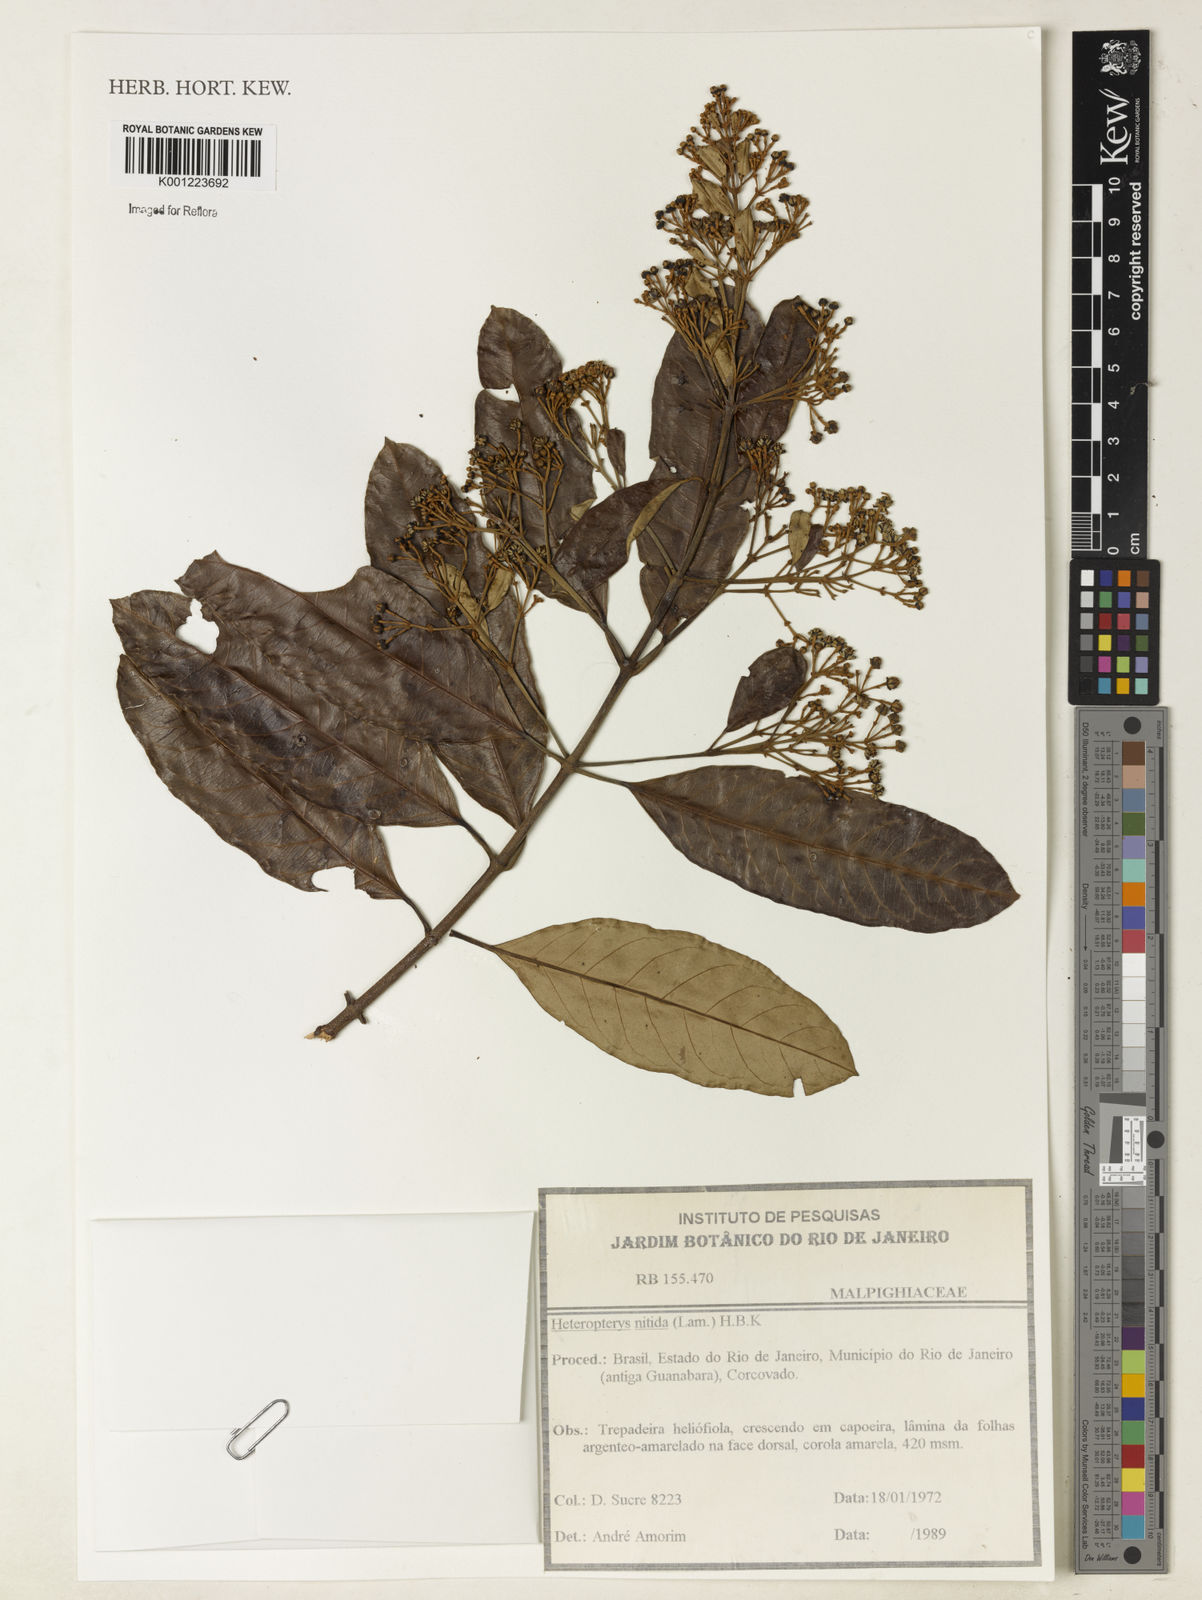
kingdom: Plantae
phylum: Tracheophyta
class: Magnoliopsida
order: Malpighiales
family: Malpighiaceae
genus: Heteropterys
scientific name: Heteropterys nitida
